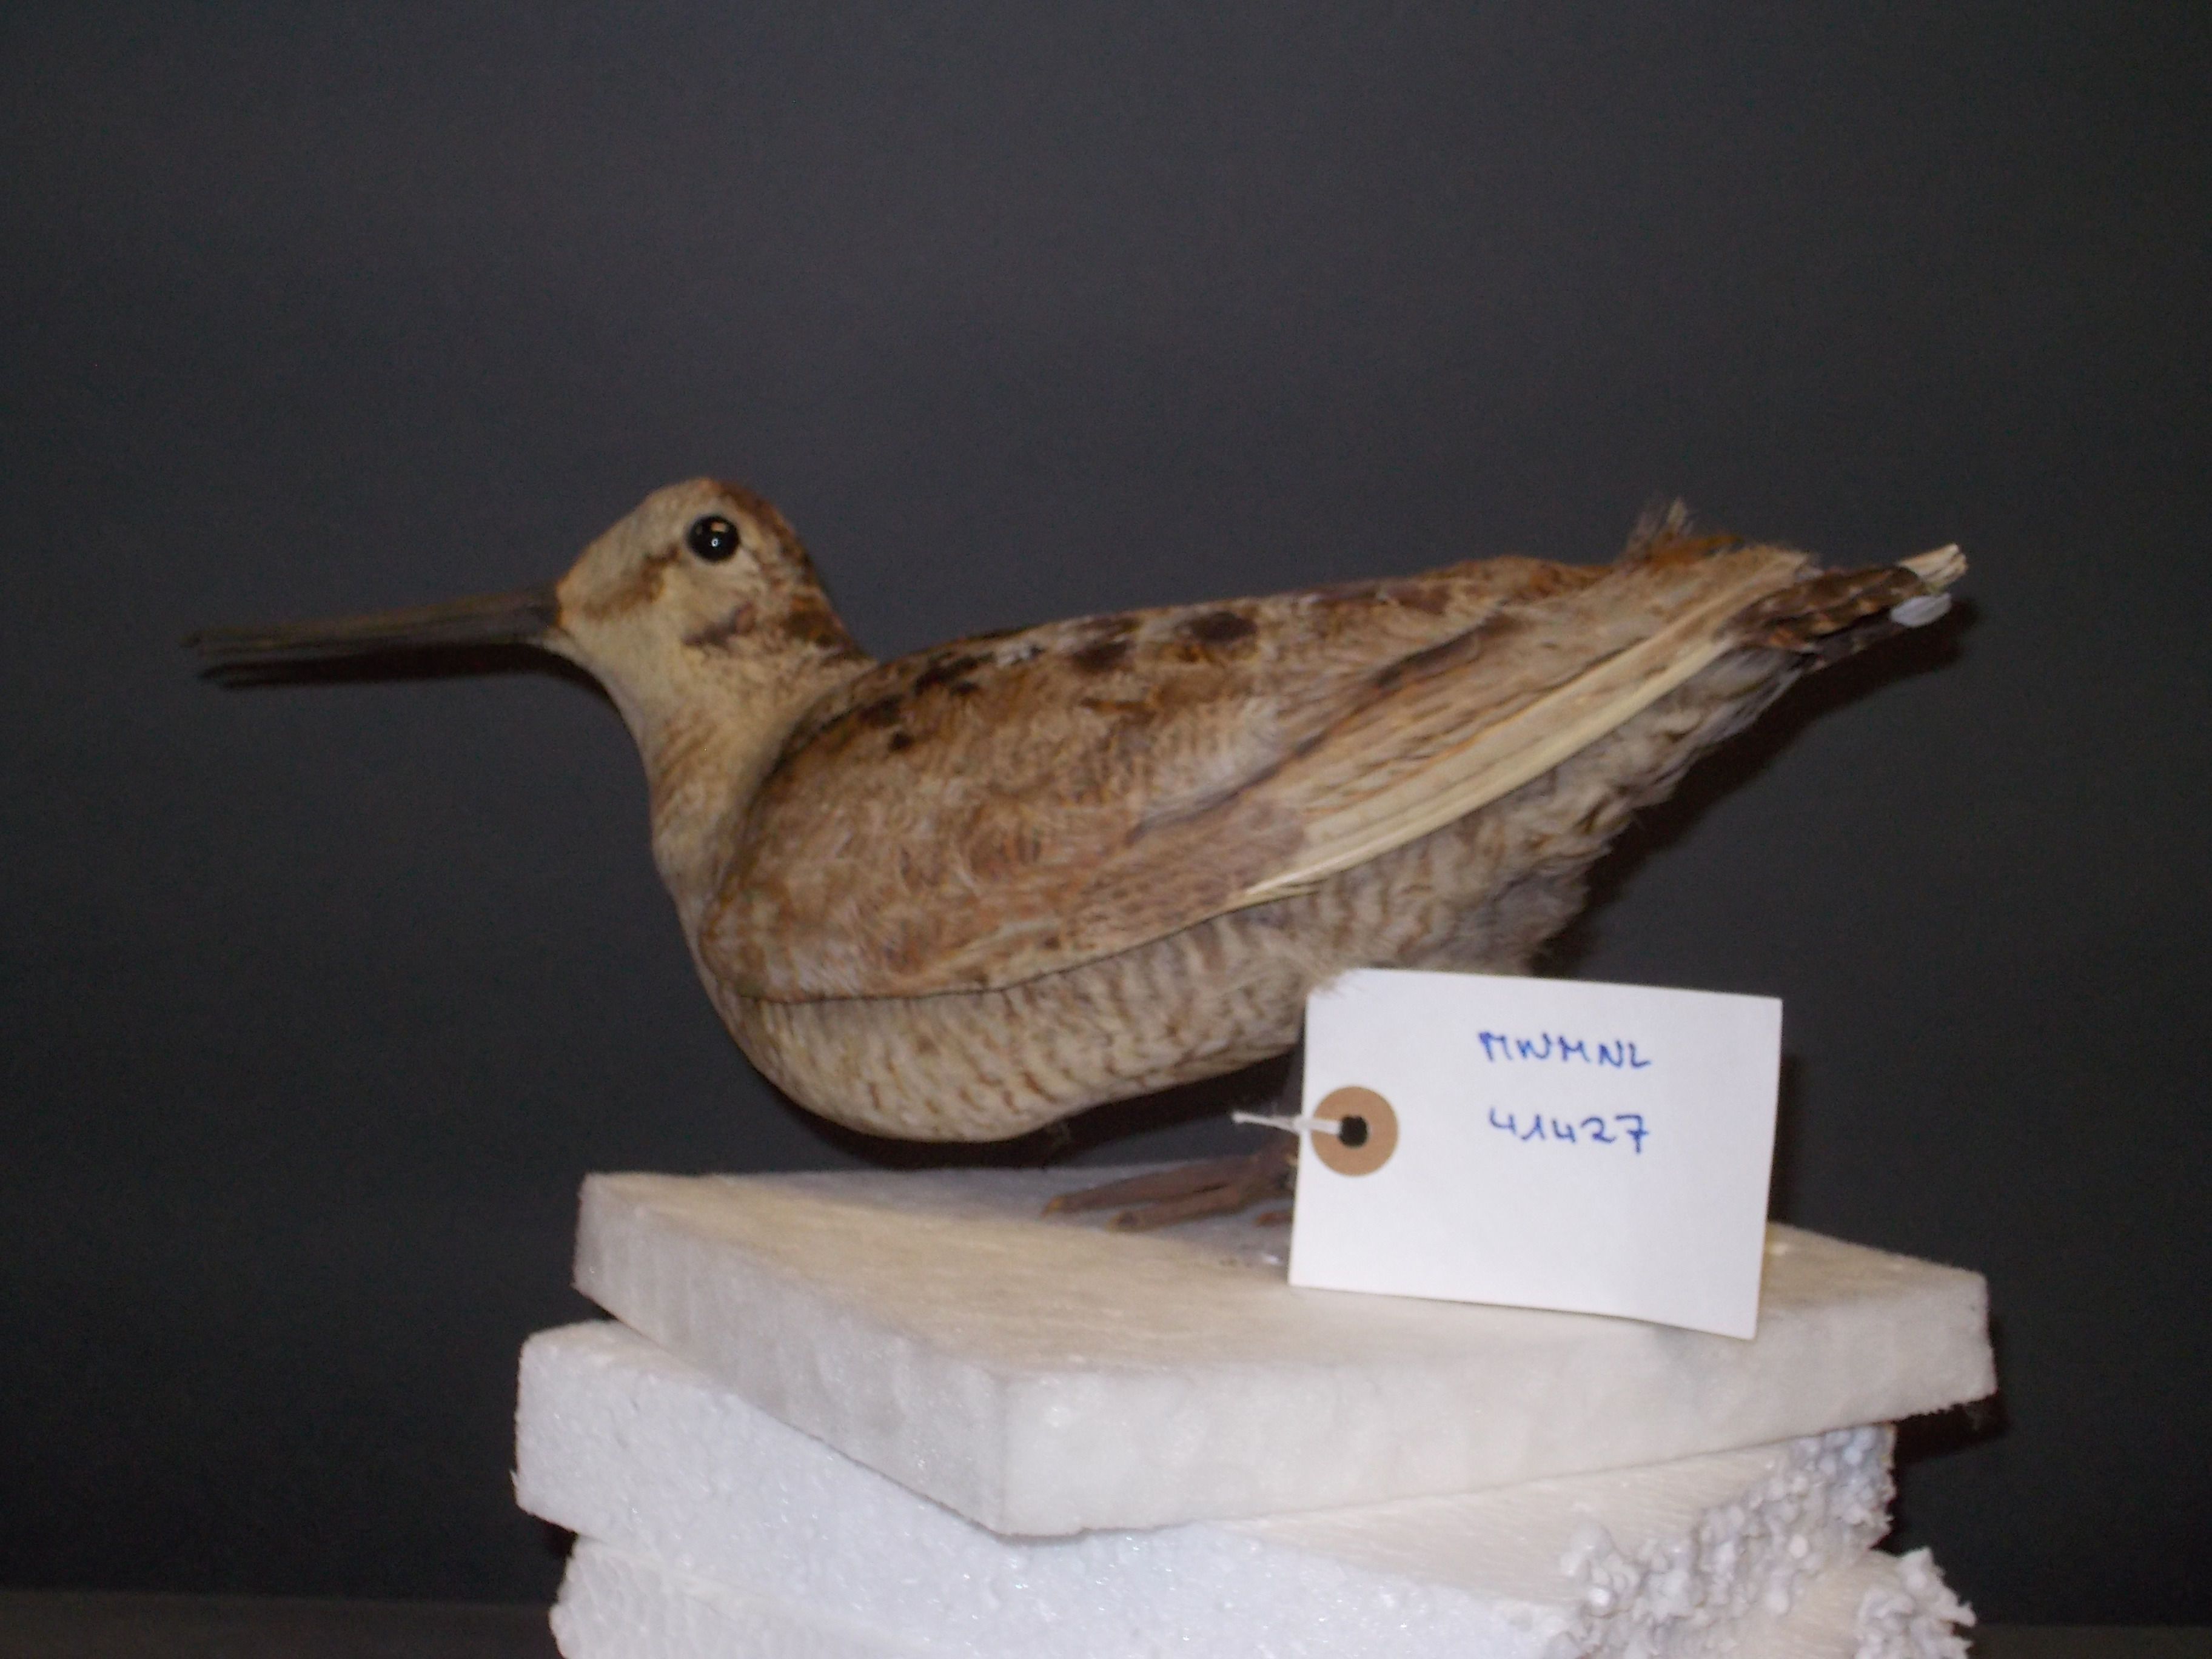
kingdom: Animalia
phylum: Chordata
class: Aves
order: Charadriiformes
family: Scolopacidae
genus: Scolopax
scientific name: Scolopax rusticola
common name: Eurasian woodcock
